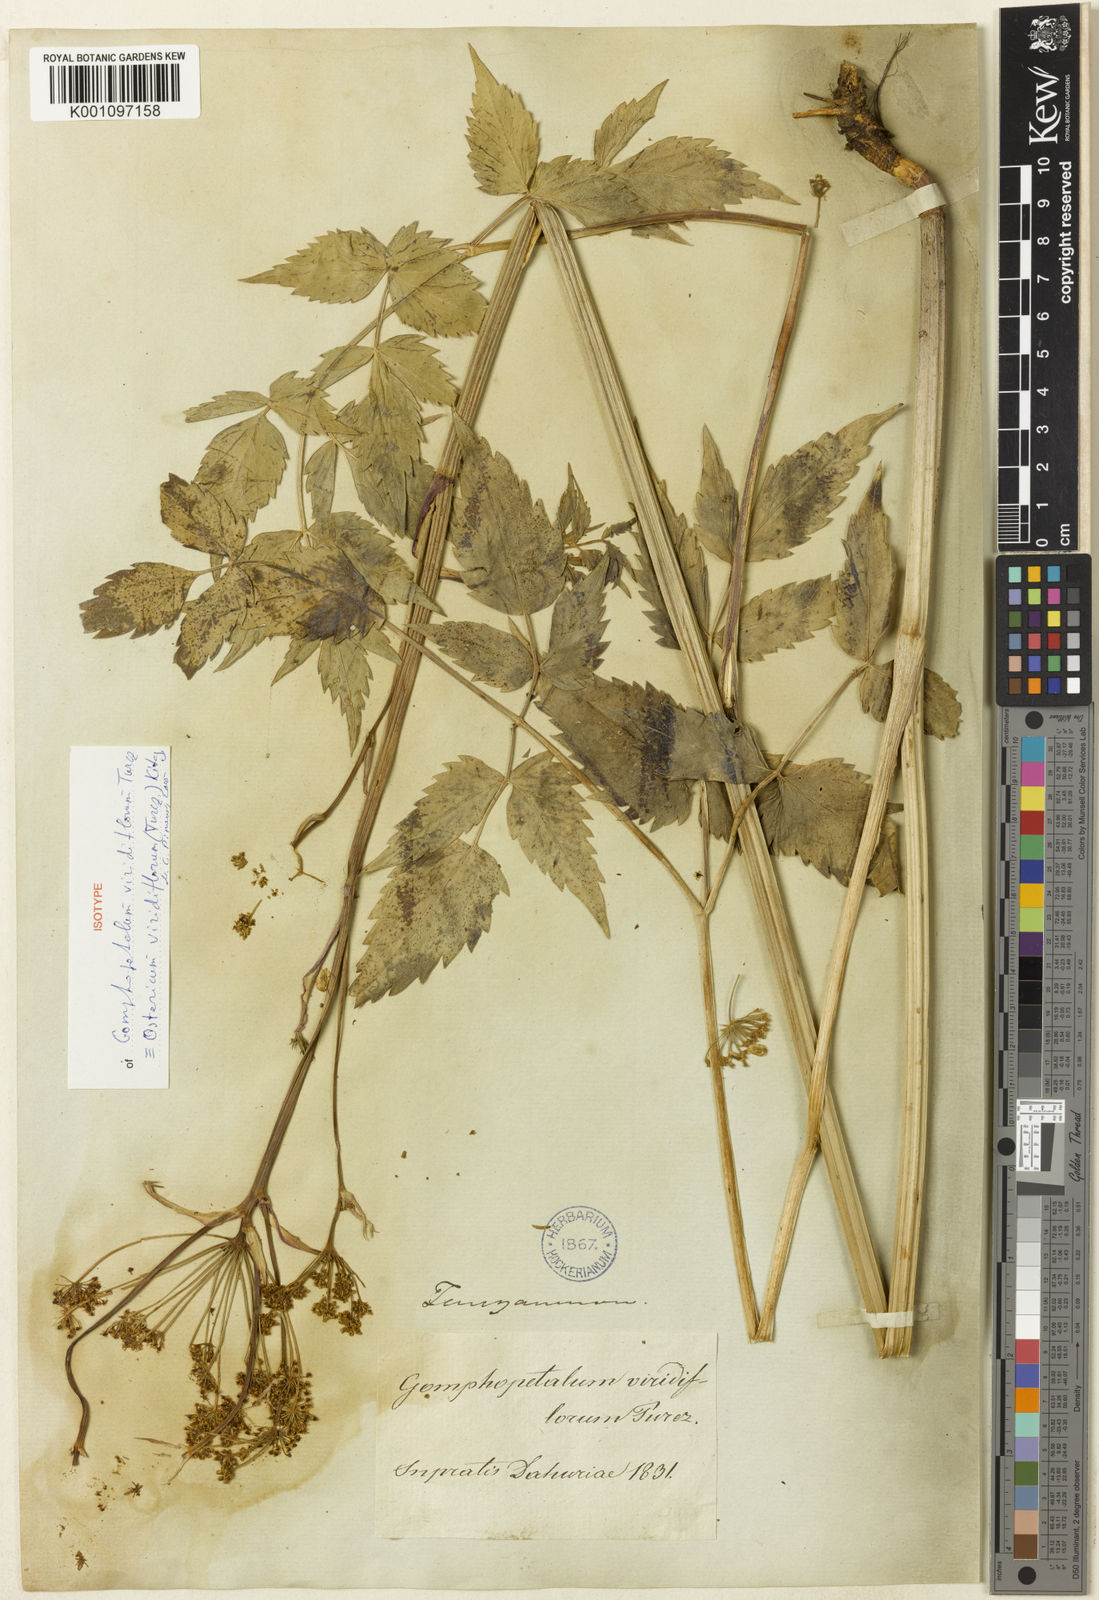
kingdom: Plantae
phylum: Tracheophyta
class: Magnoliopsida
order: Apiales
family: Apiaceae
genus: Ostericum
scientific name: Ostericum viridiflorum
